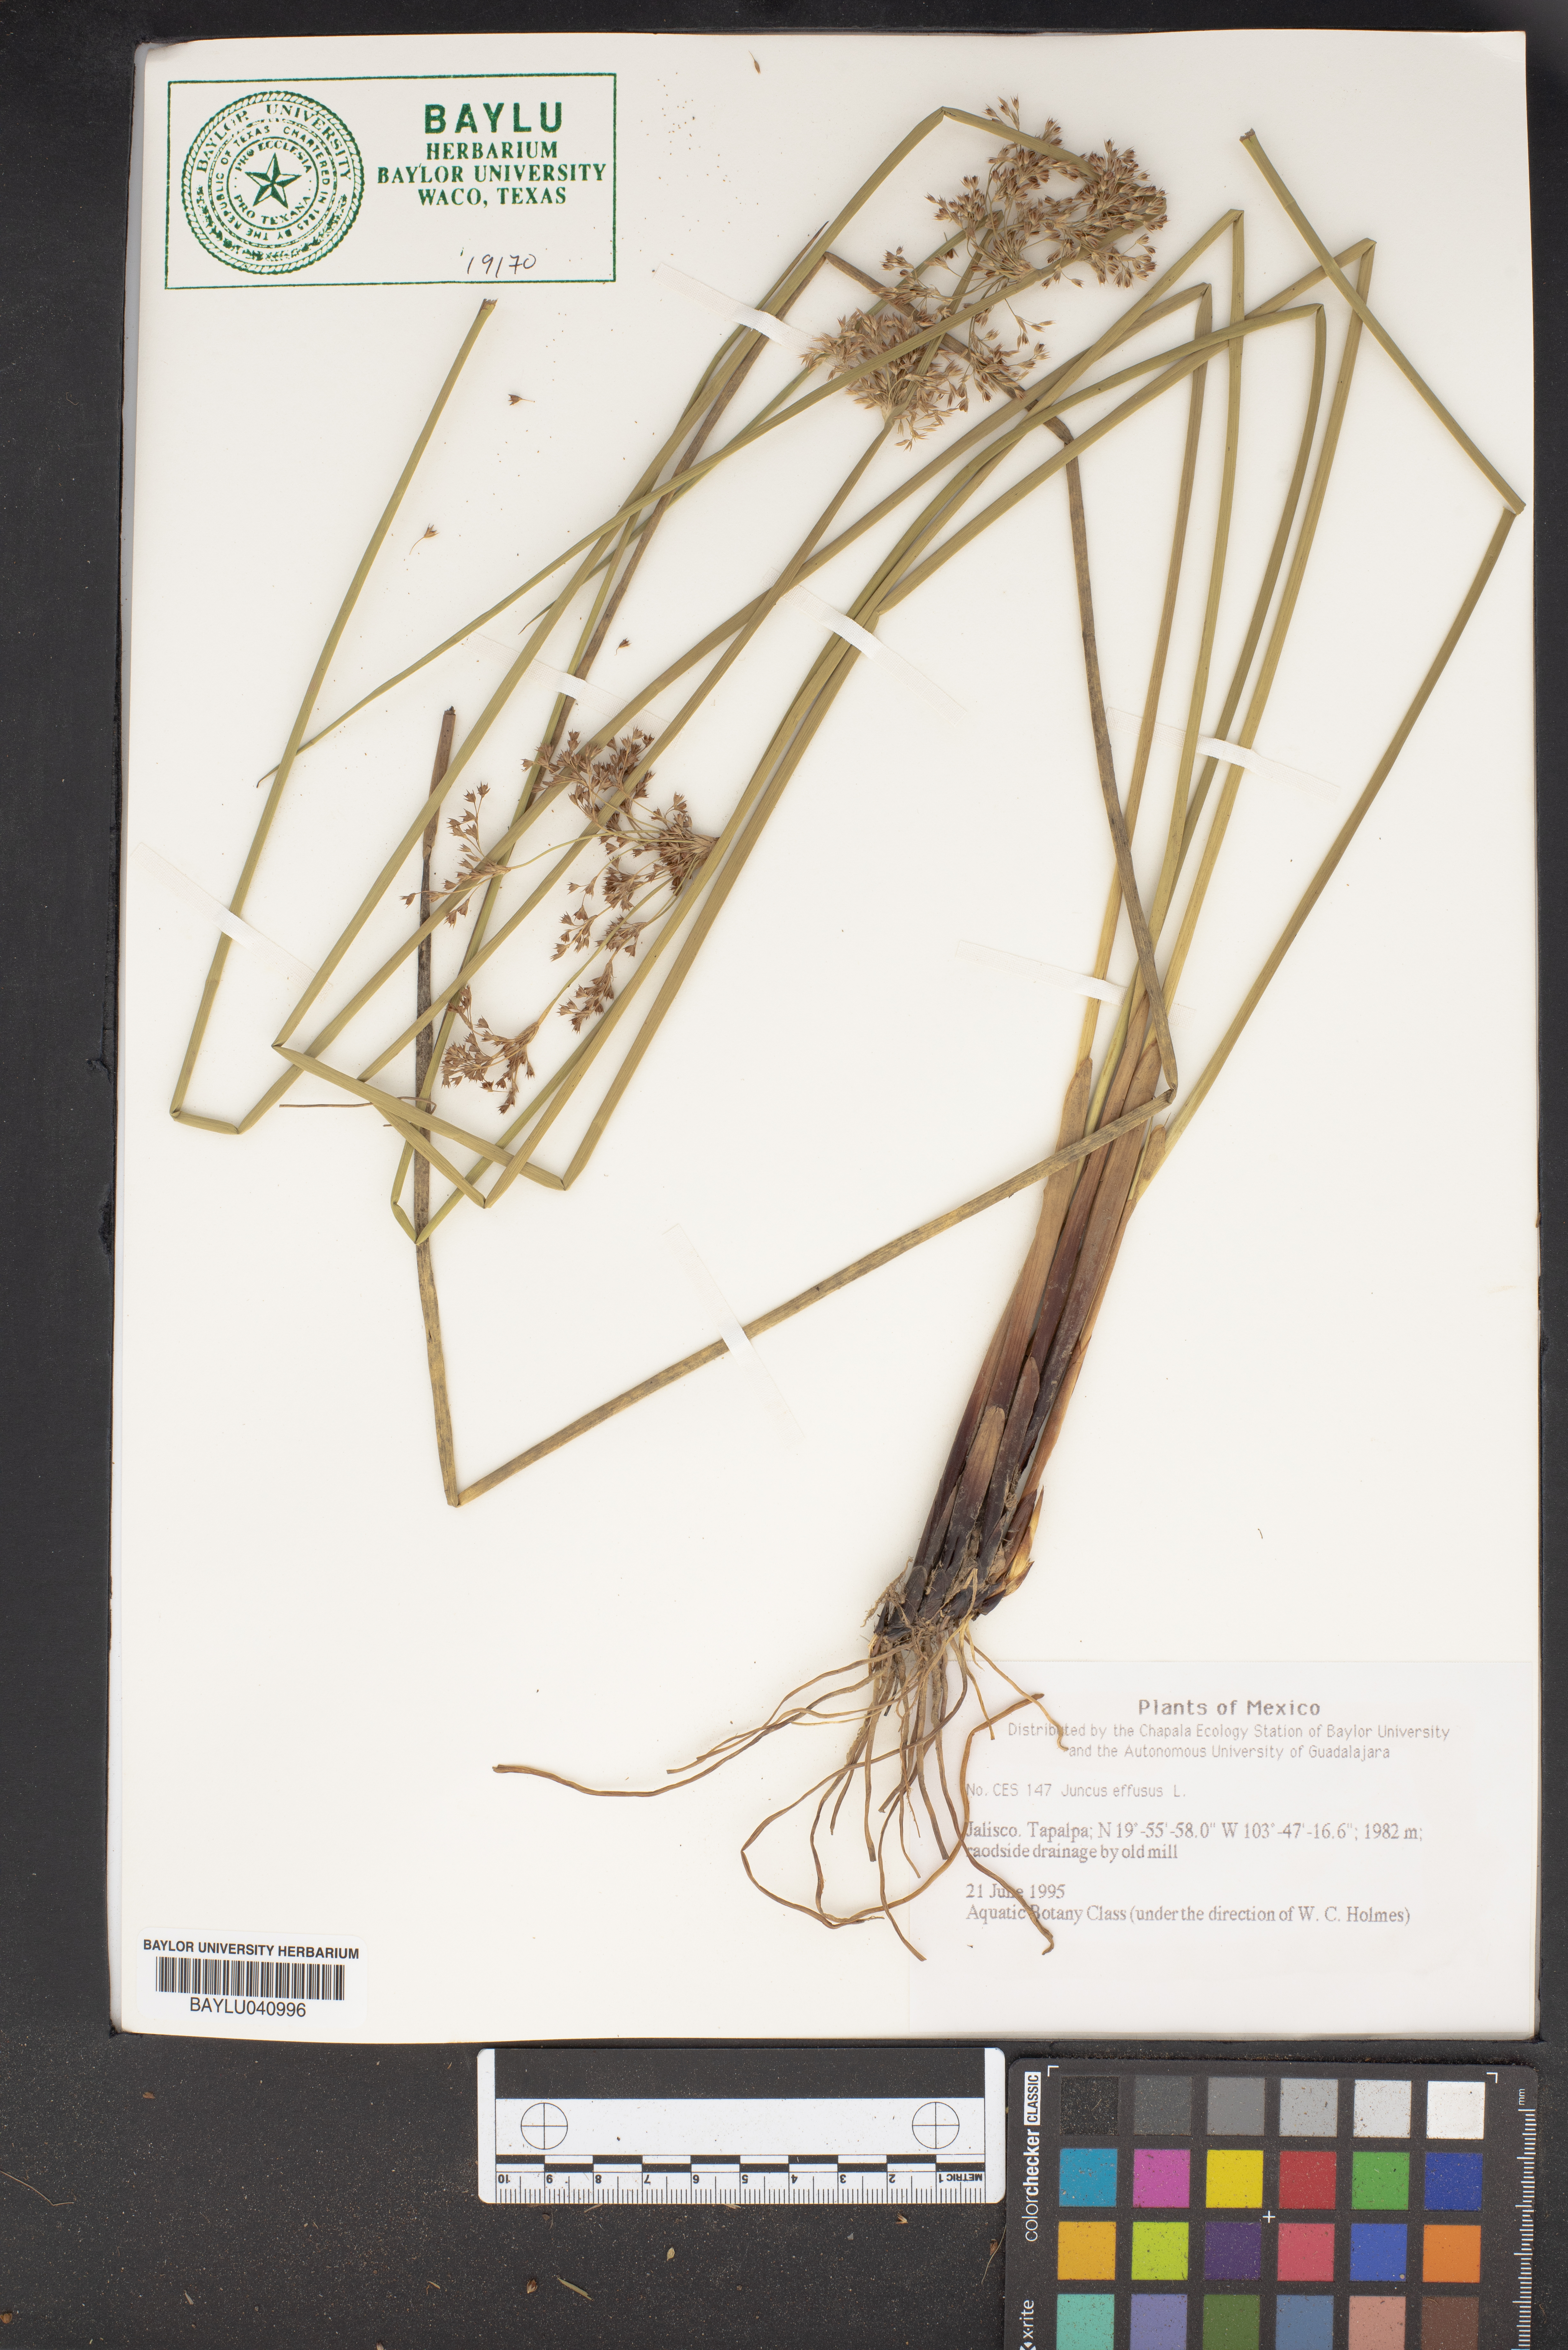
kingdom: Plantae
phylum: Tracheophyta
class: Liliopsida
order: Poales
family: Juncaceae
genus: Juncus
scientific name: Juncus effusus
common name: Soft rush
